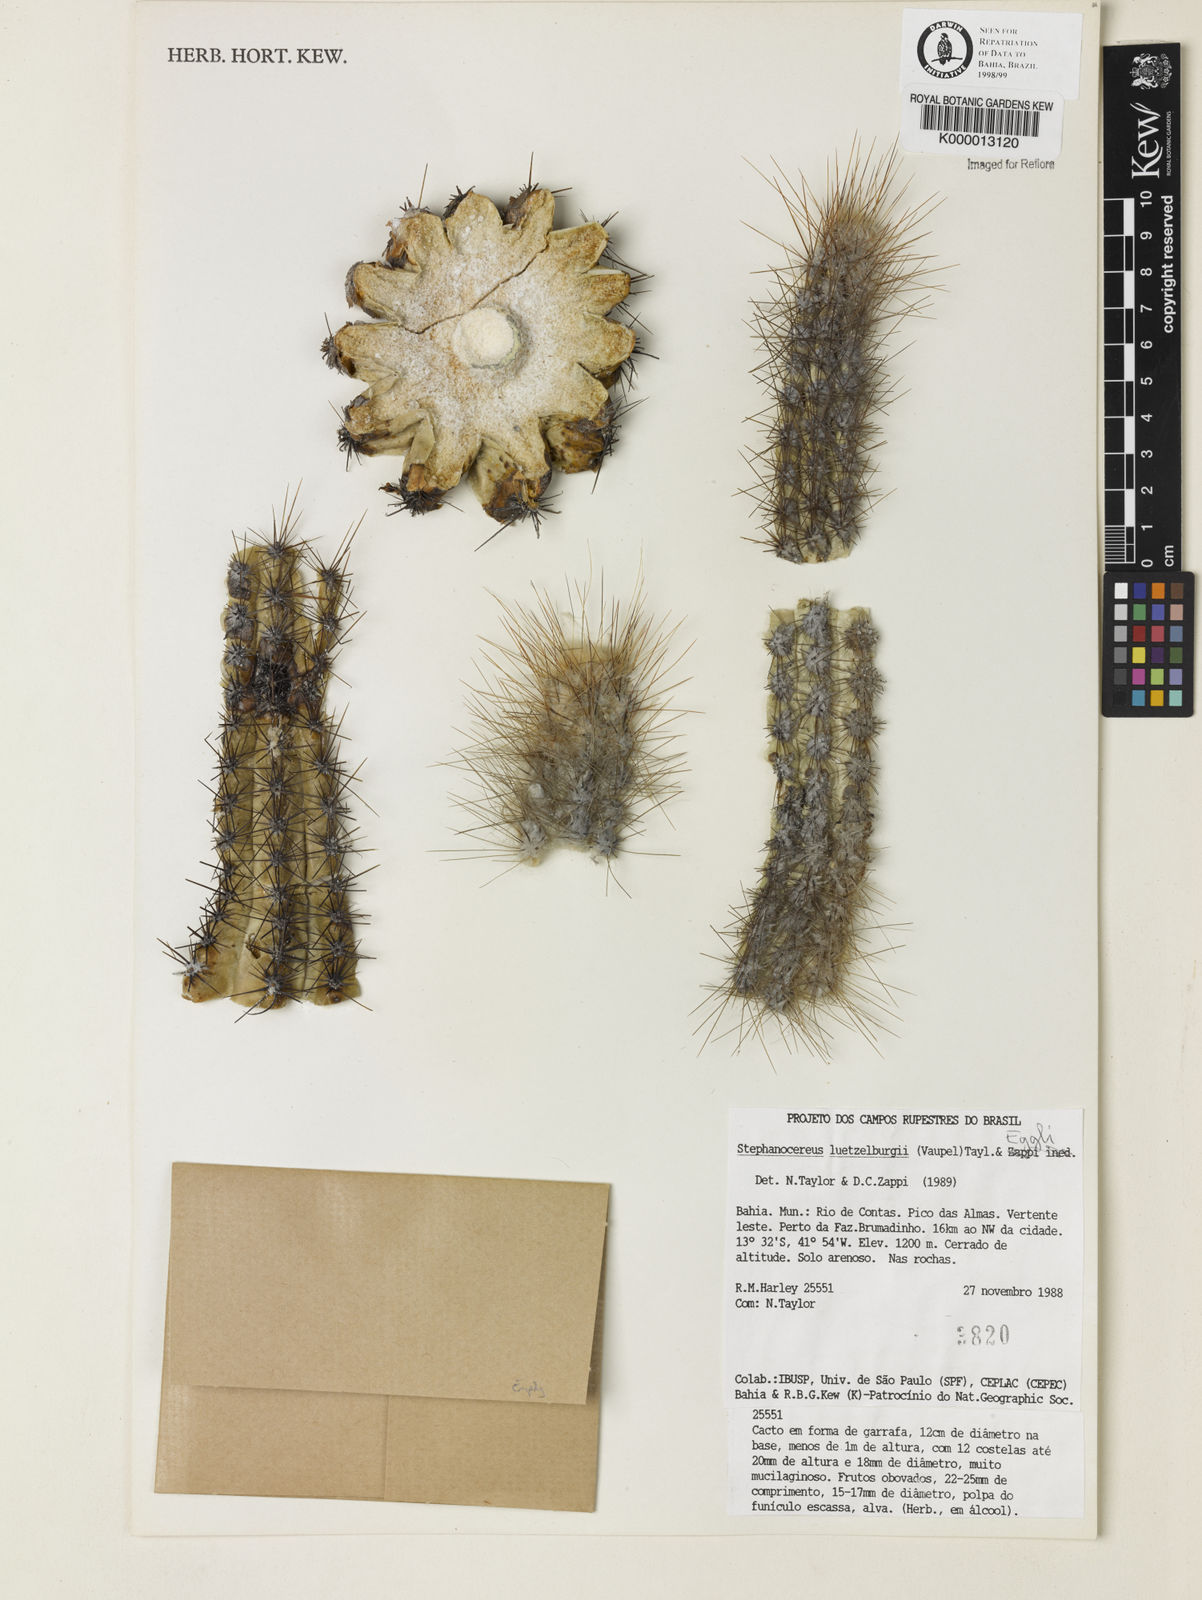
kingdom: Plantae
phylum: Tracheophyta
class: Magnoliopsida
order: Caryophyllales
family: Cactaceae
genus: Lagenosocereus
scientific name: Lagenosocereus luetzelburgii
